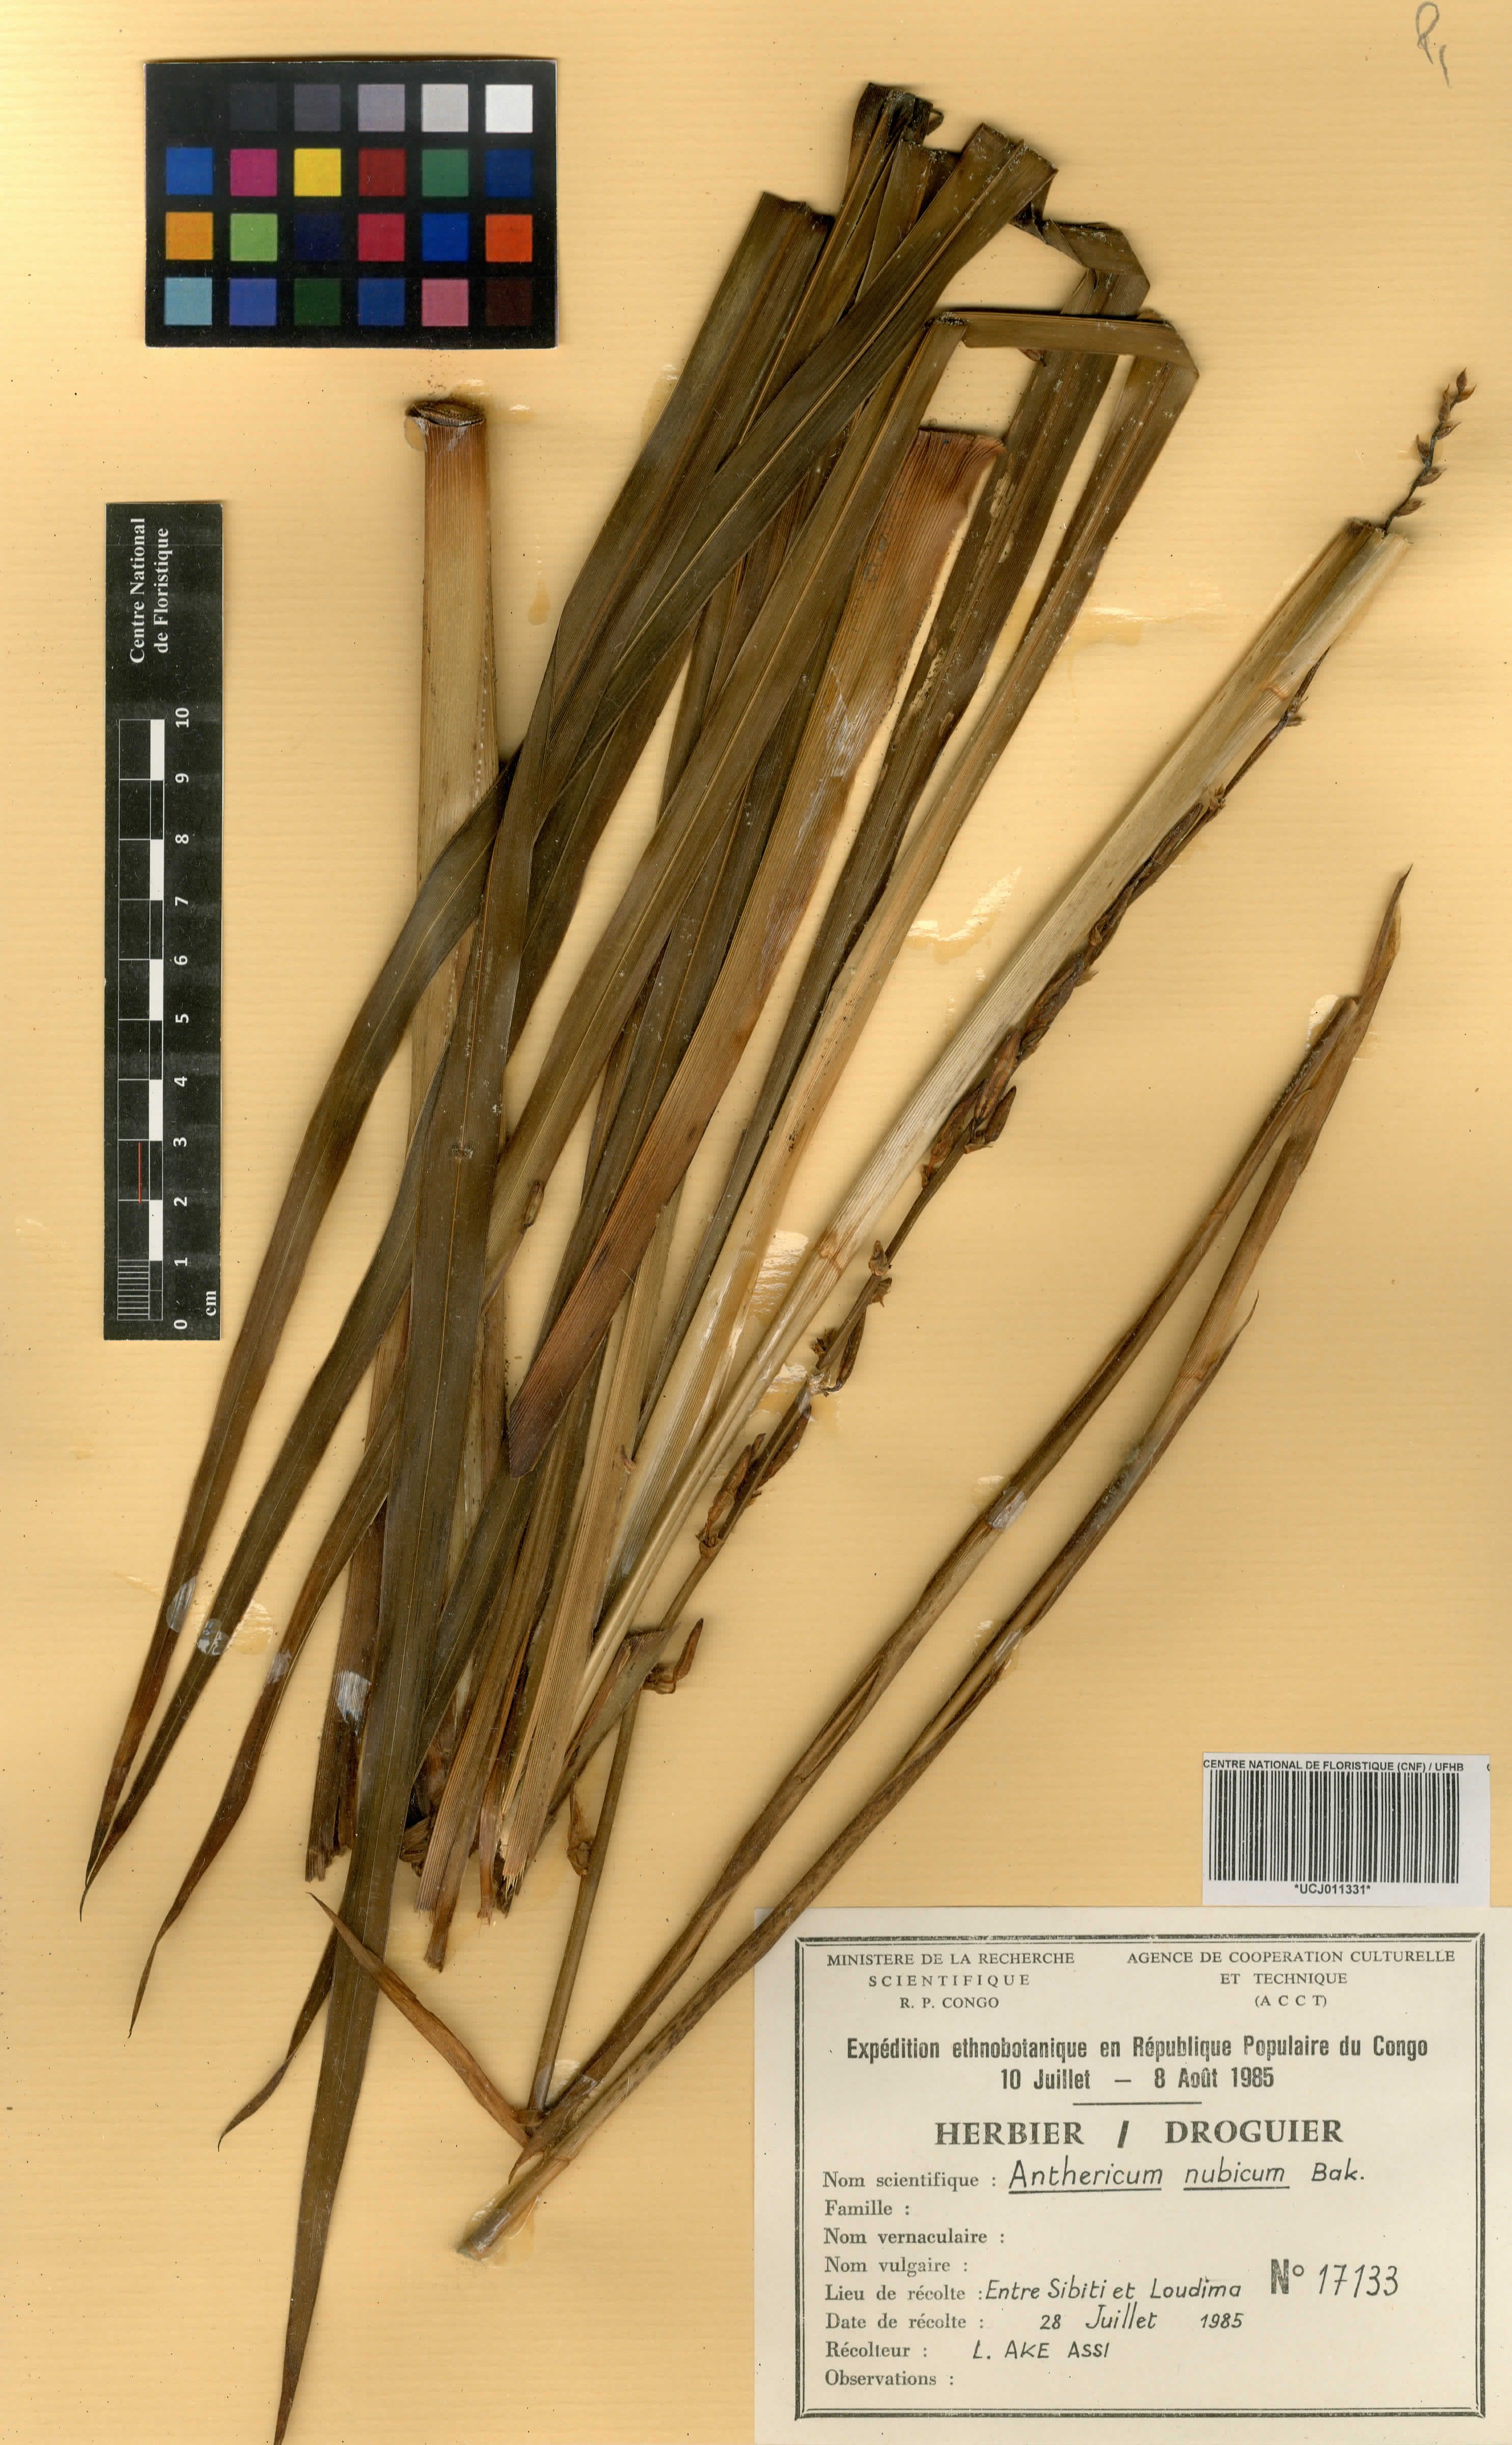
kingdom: Plantae
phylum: Tracheophyta
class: Liliopsida
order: Asparagales
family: Asparagaceae
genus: Chlorophytum
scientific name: Chlorophytum nubicum
